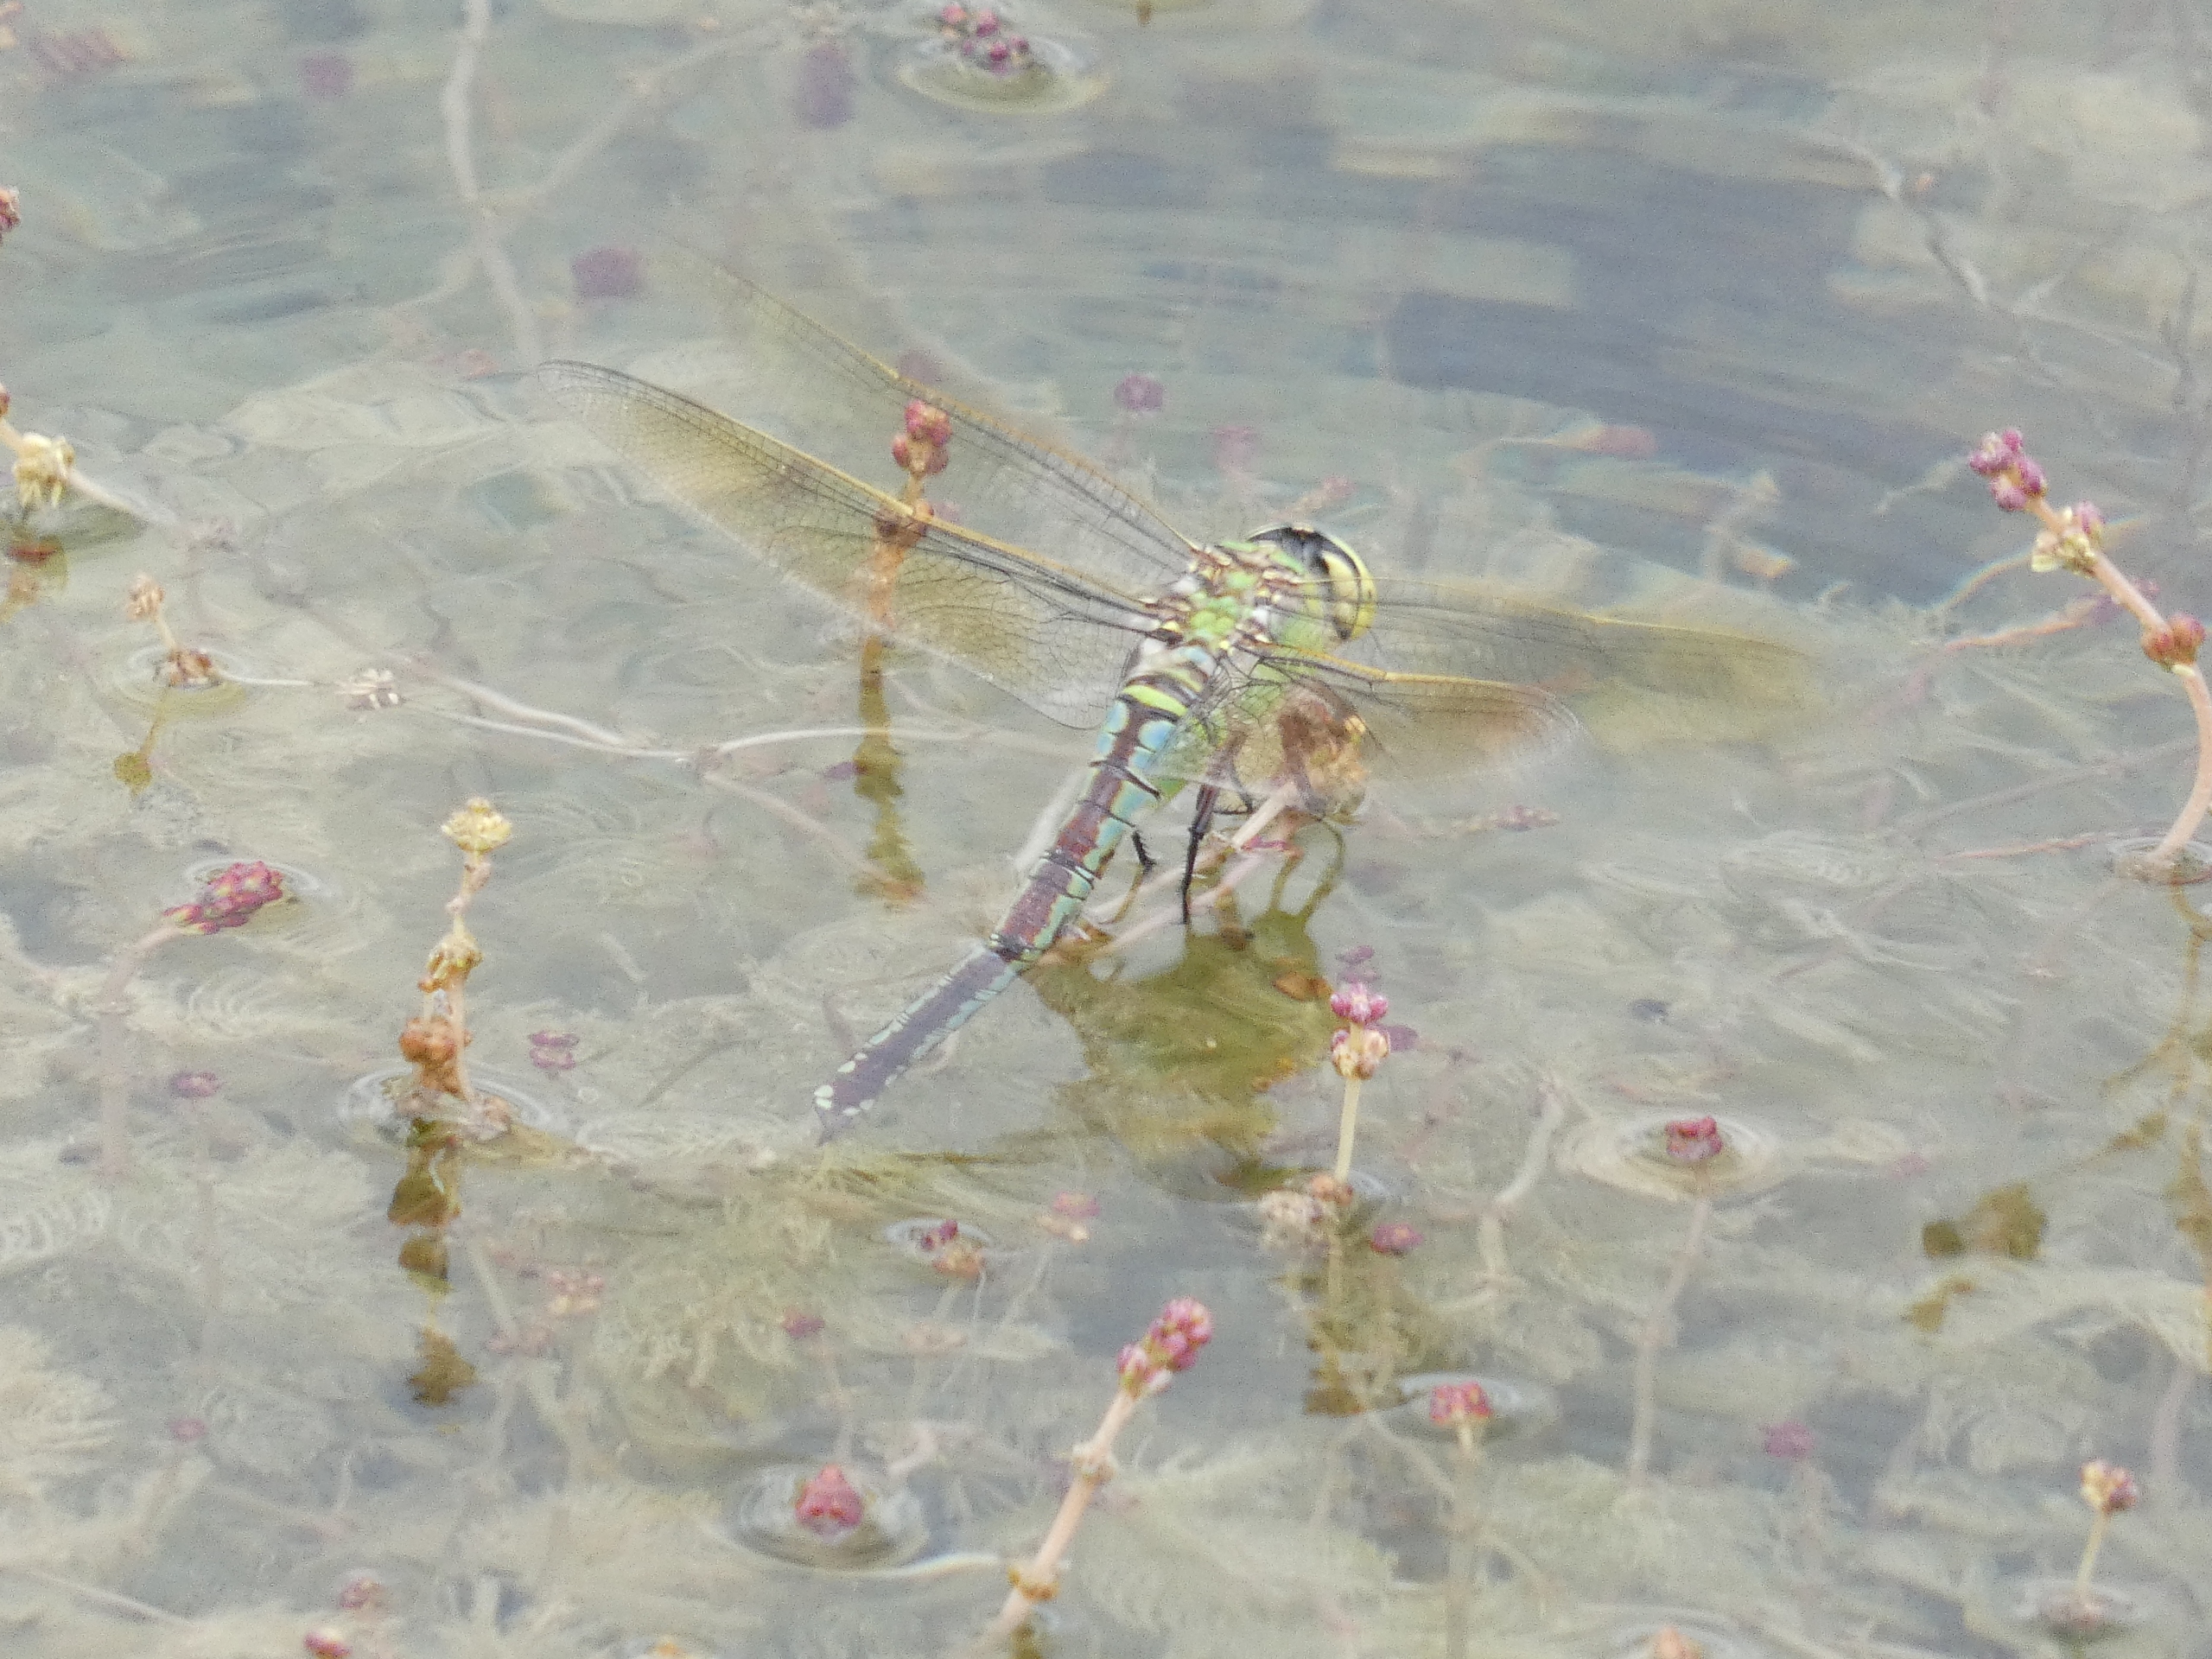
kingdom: Animalia
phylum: Arthropoda
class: Insecta
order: Odonata
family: Aeshnidae
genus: Anax
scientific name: Anax imperator
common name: Stor kejserguldsmed
